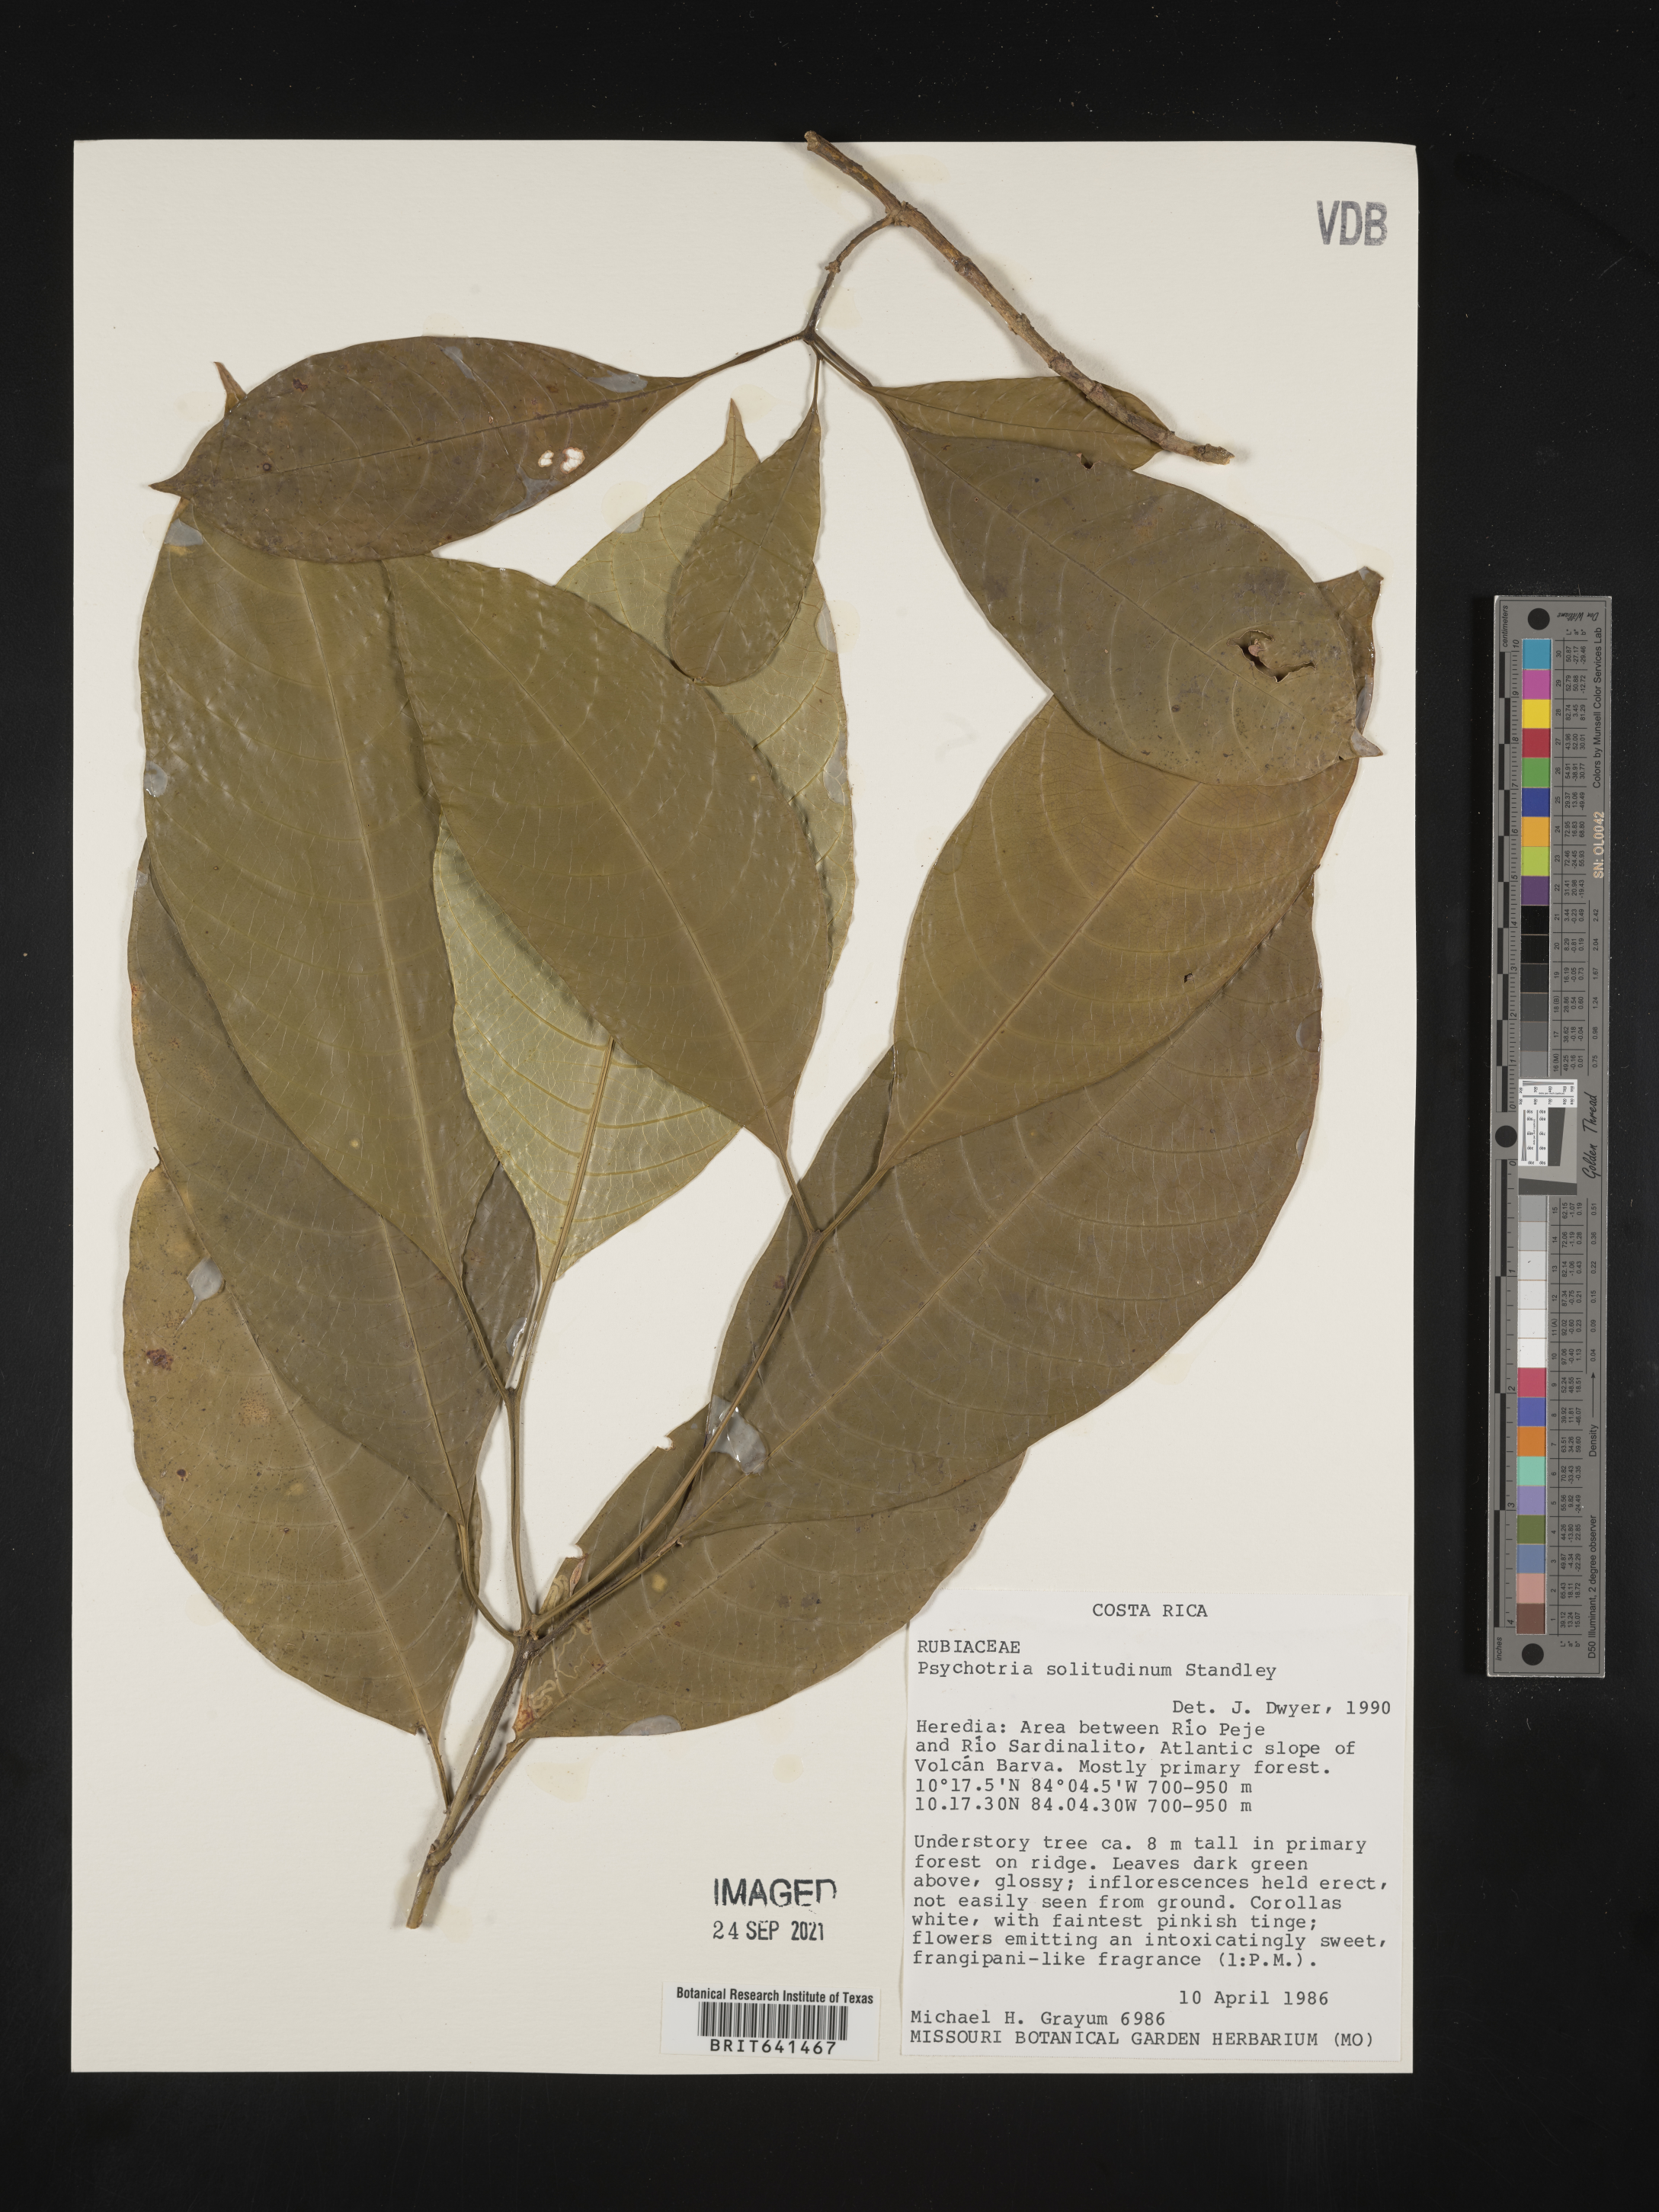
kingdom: Plantae
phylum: Tracheophyta
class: Magnoliopsida
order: Gentianales
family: Rubiaceae
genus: Psychotria
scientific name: Psychotria
